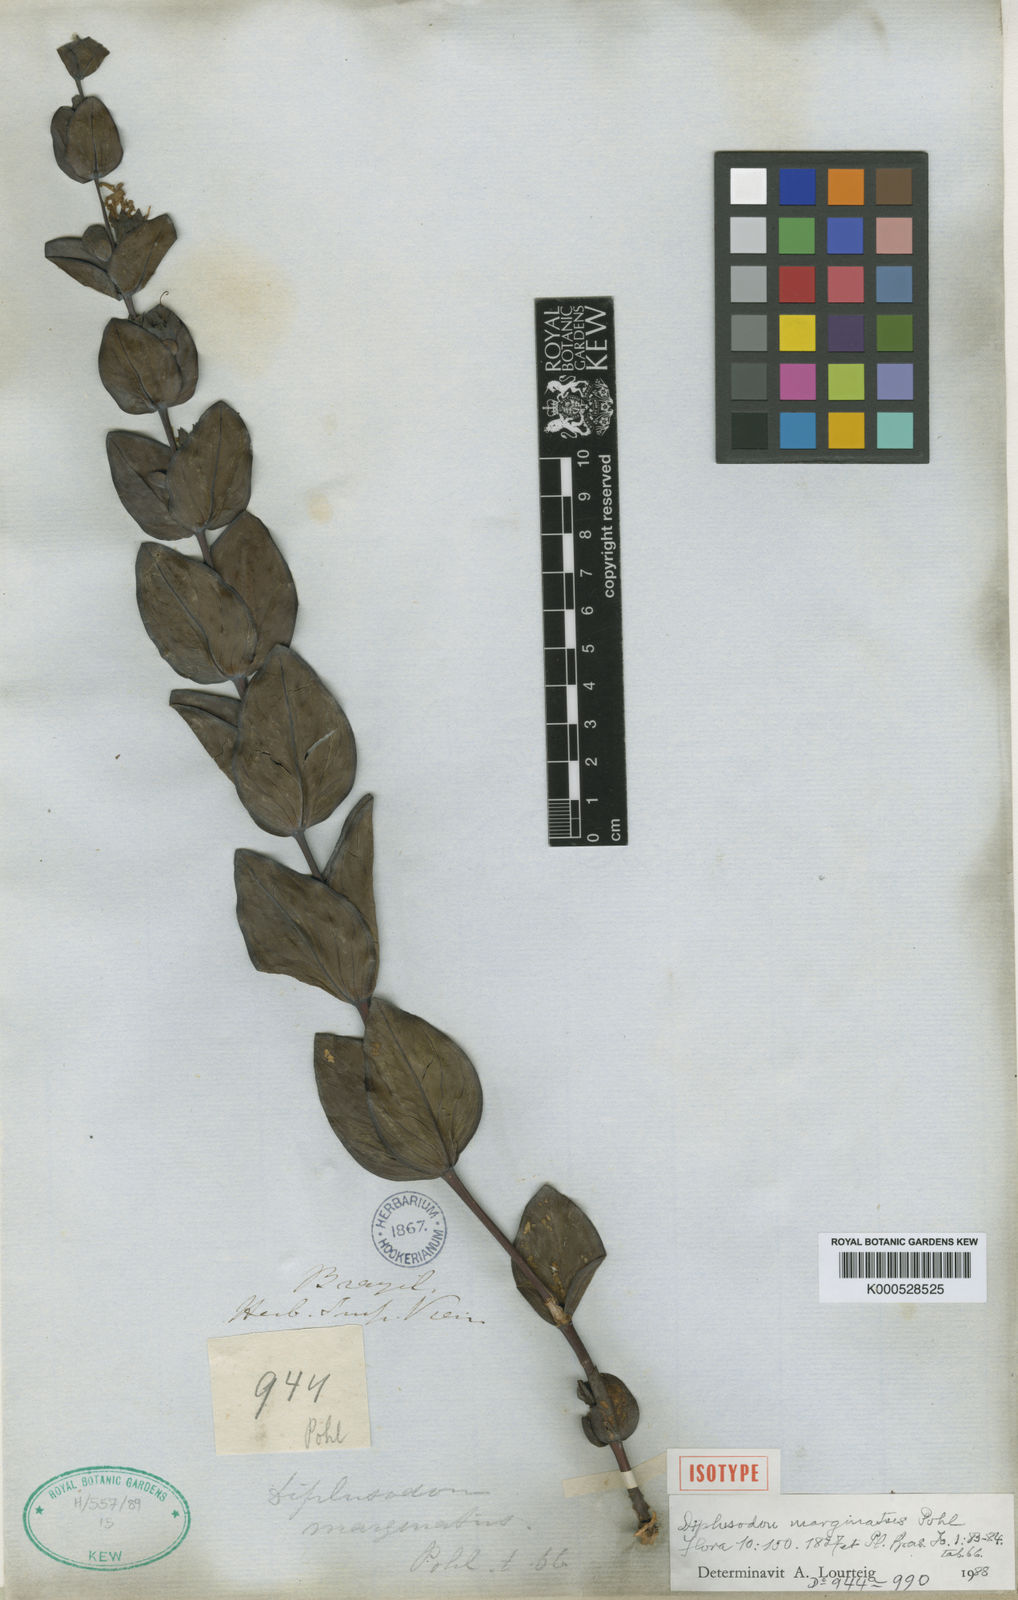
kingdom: Plantae
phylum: Tracheophyta
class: Magnoliopsida
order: Myrtales
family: Lythraceae
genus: Diplusodon
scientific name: Diplusodon marginatus
